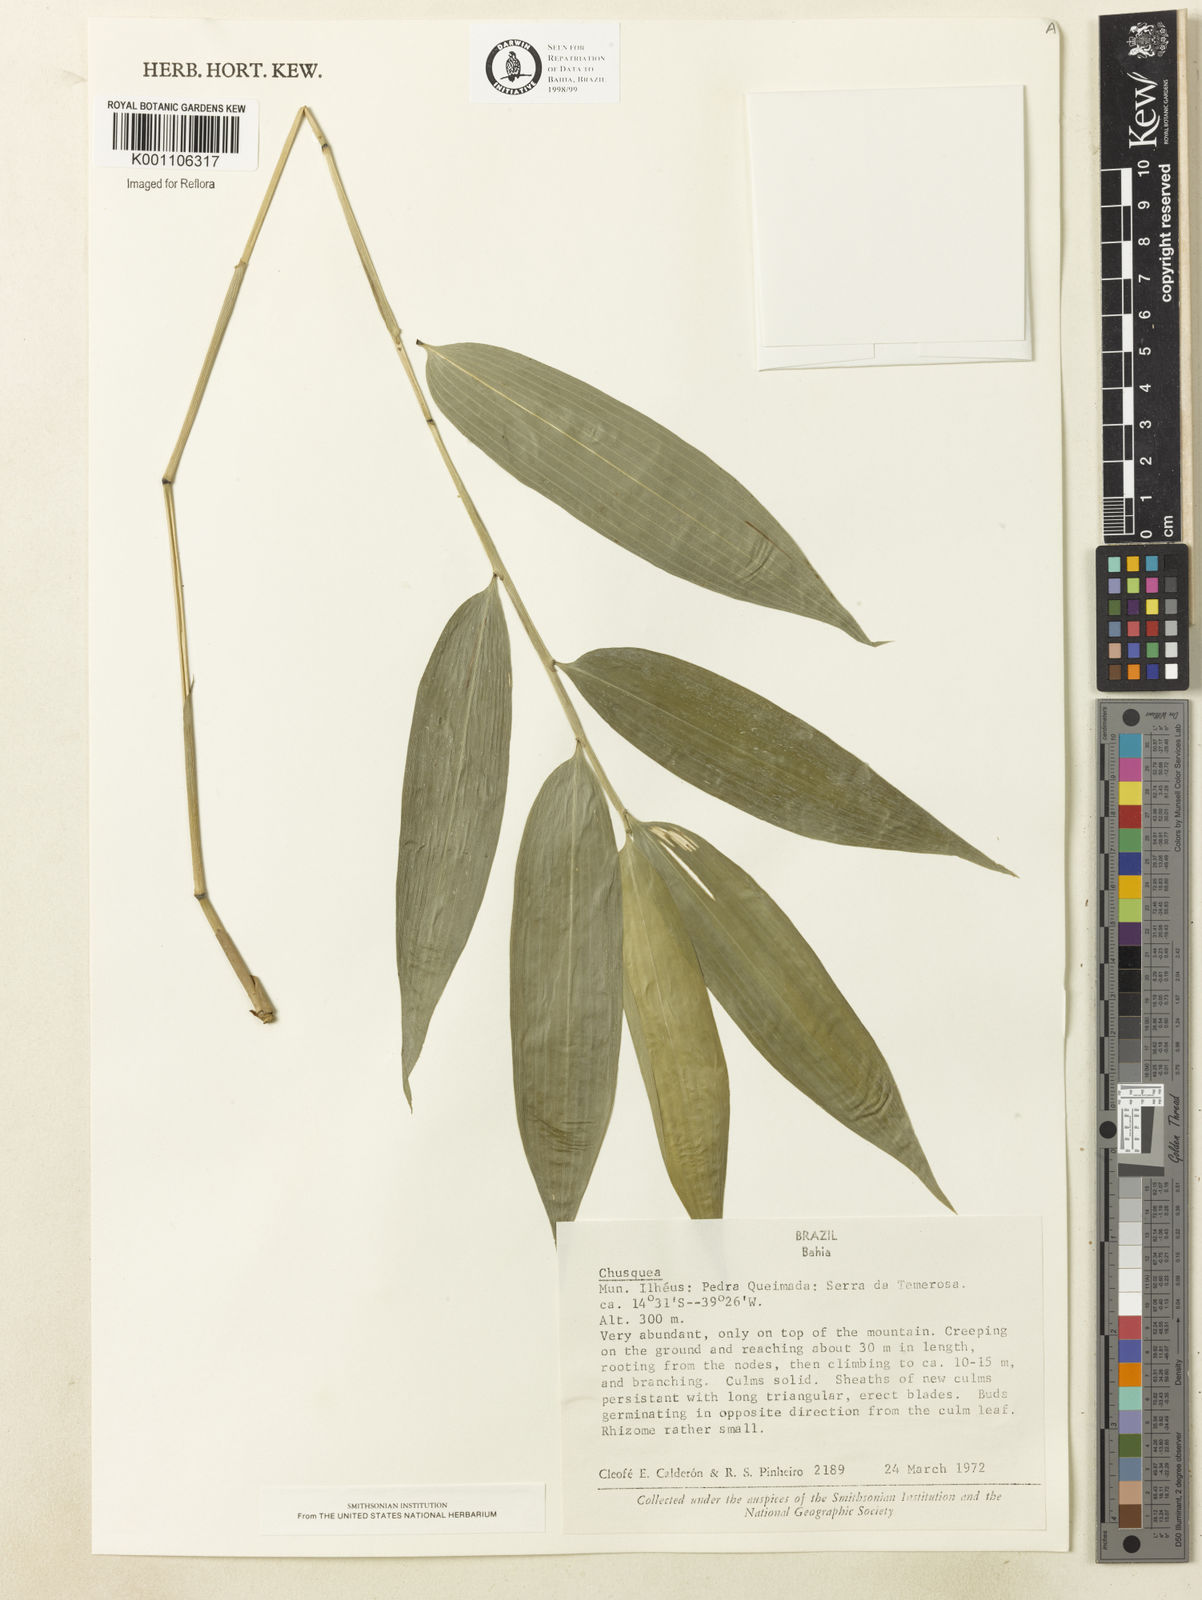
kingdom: Plantae
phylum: Tracheophyta
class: Liliopsida
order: Poales
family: Poaceae
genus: Chusquea
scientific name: Chusquea
